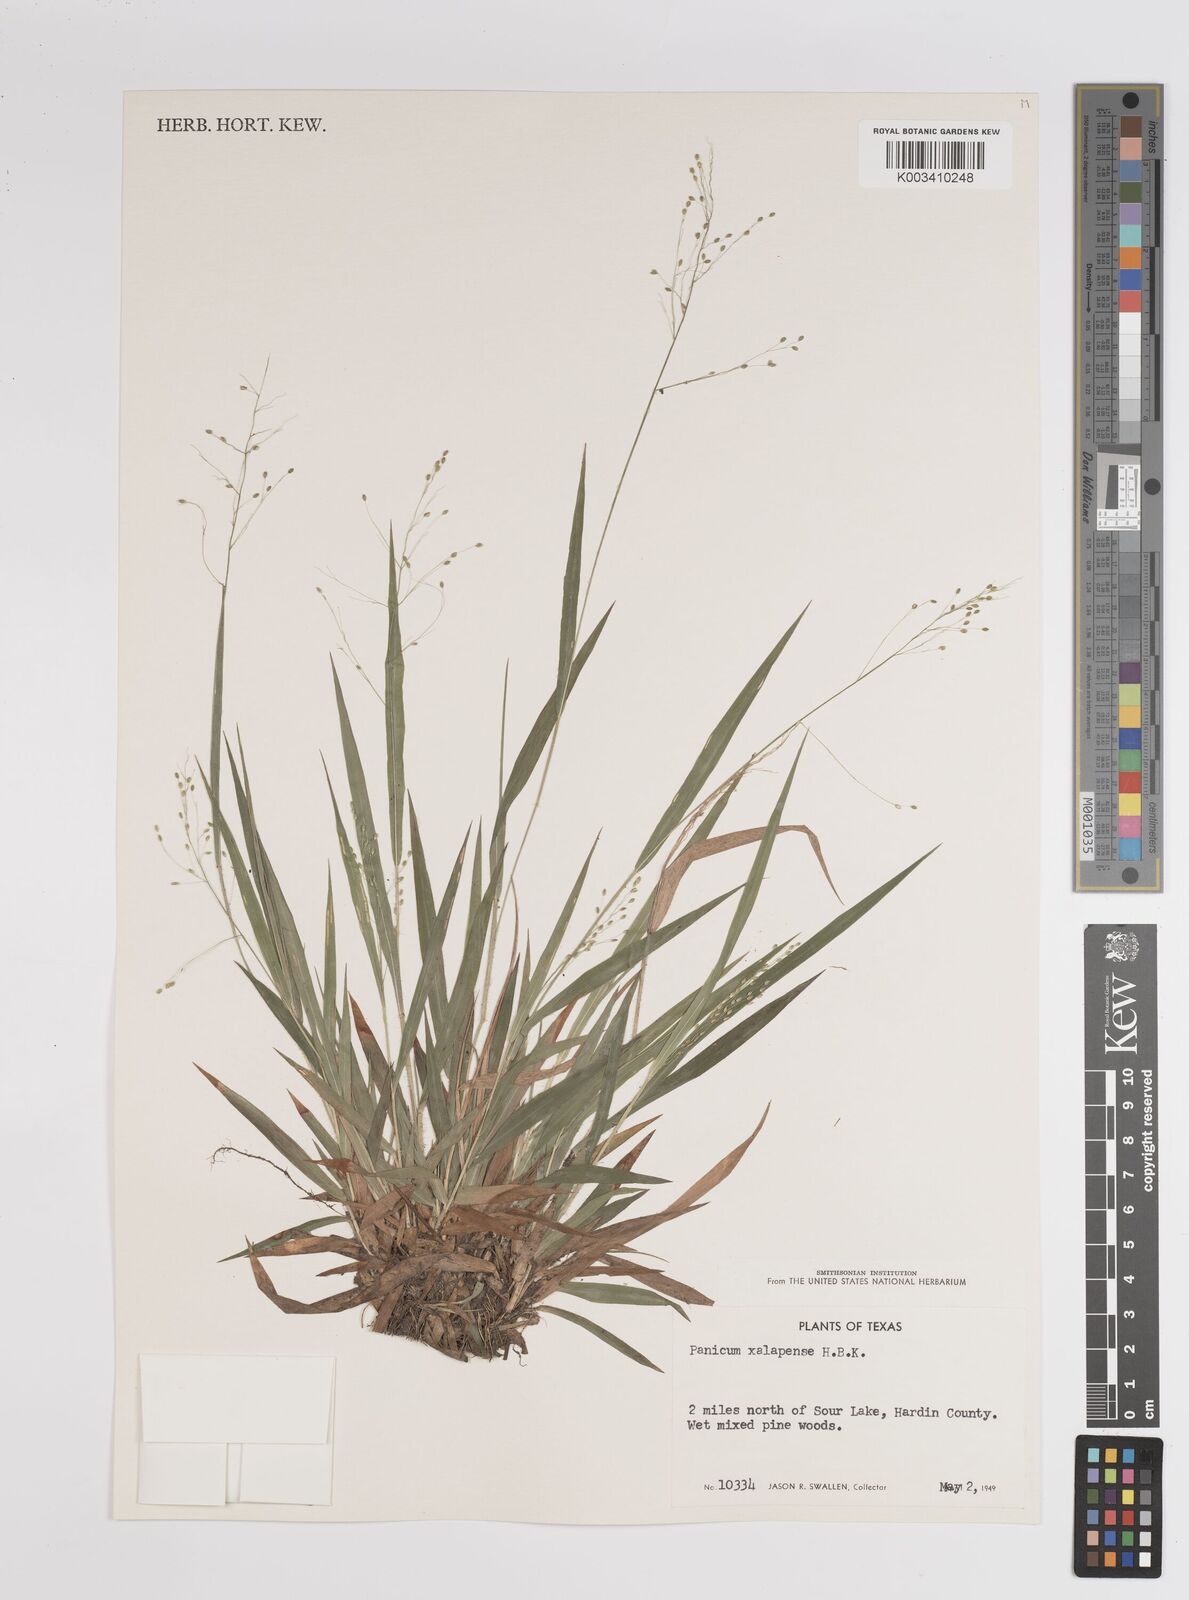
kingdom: Plantae
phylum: Tracheophyta
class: Liliopsida
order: Poales
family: Poaceae
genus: Dichanthelium
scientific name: Dichanthelium laxiflorum
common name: Soft-tuft panic grass
